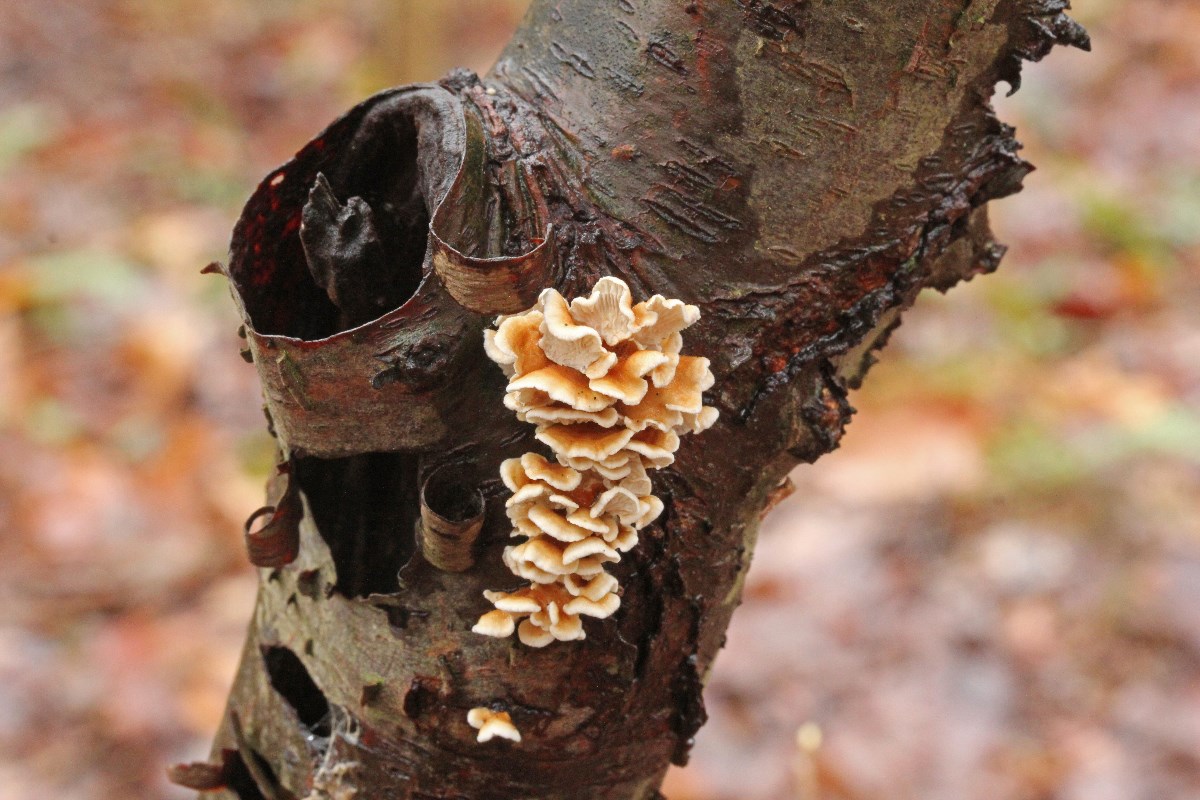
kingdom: Fungi
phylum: Basidiomycota
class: Agaricomycetes
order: Amylocorticiales
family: Amylocorticiaceae
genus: Plicaturopsis
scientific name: Plicaturopsis crispa
